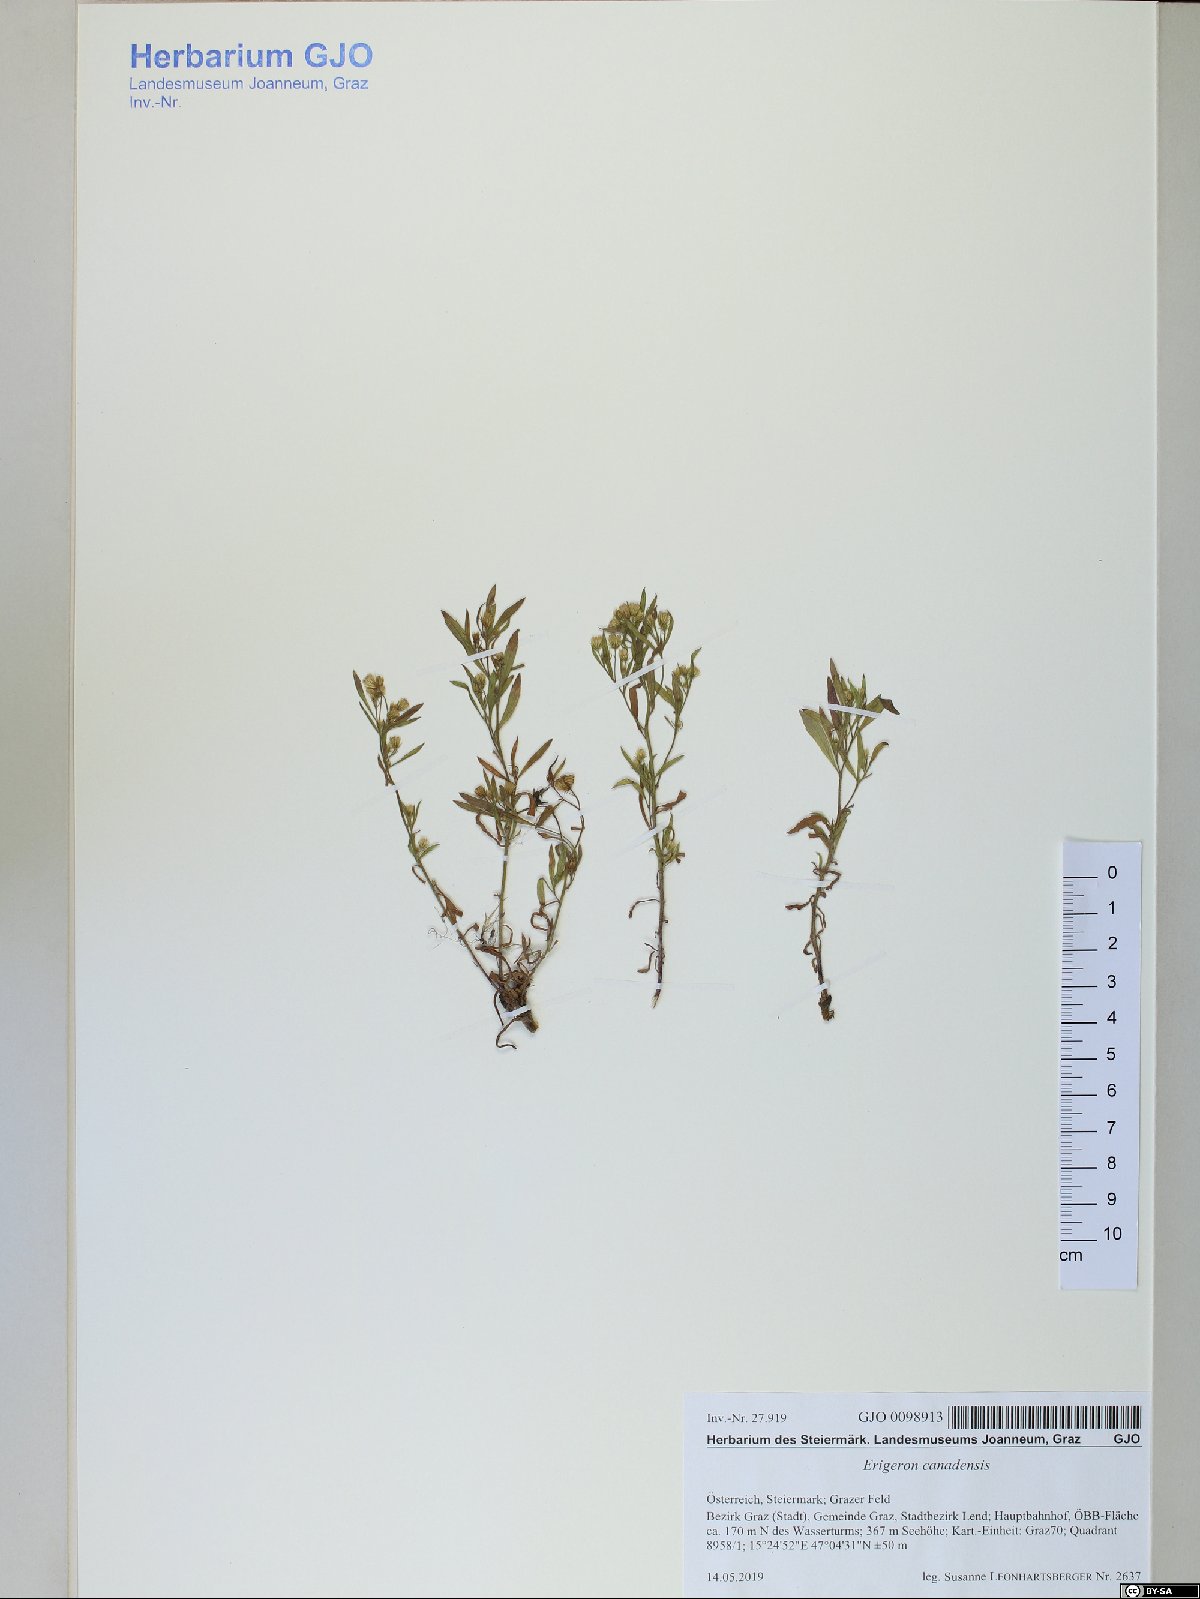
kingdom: Plantae
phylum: Tracheophyta
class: Magnoliopsida
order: Asterales
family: Asteraceae
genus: Erigeron
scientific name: Erigeron canadensis
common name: Canadian fleabane
